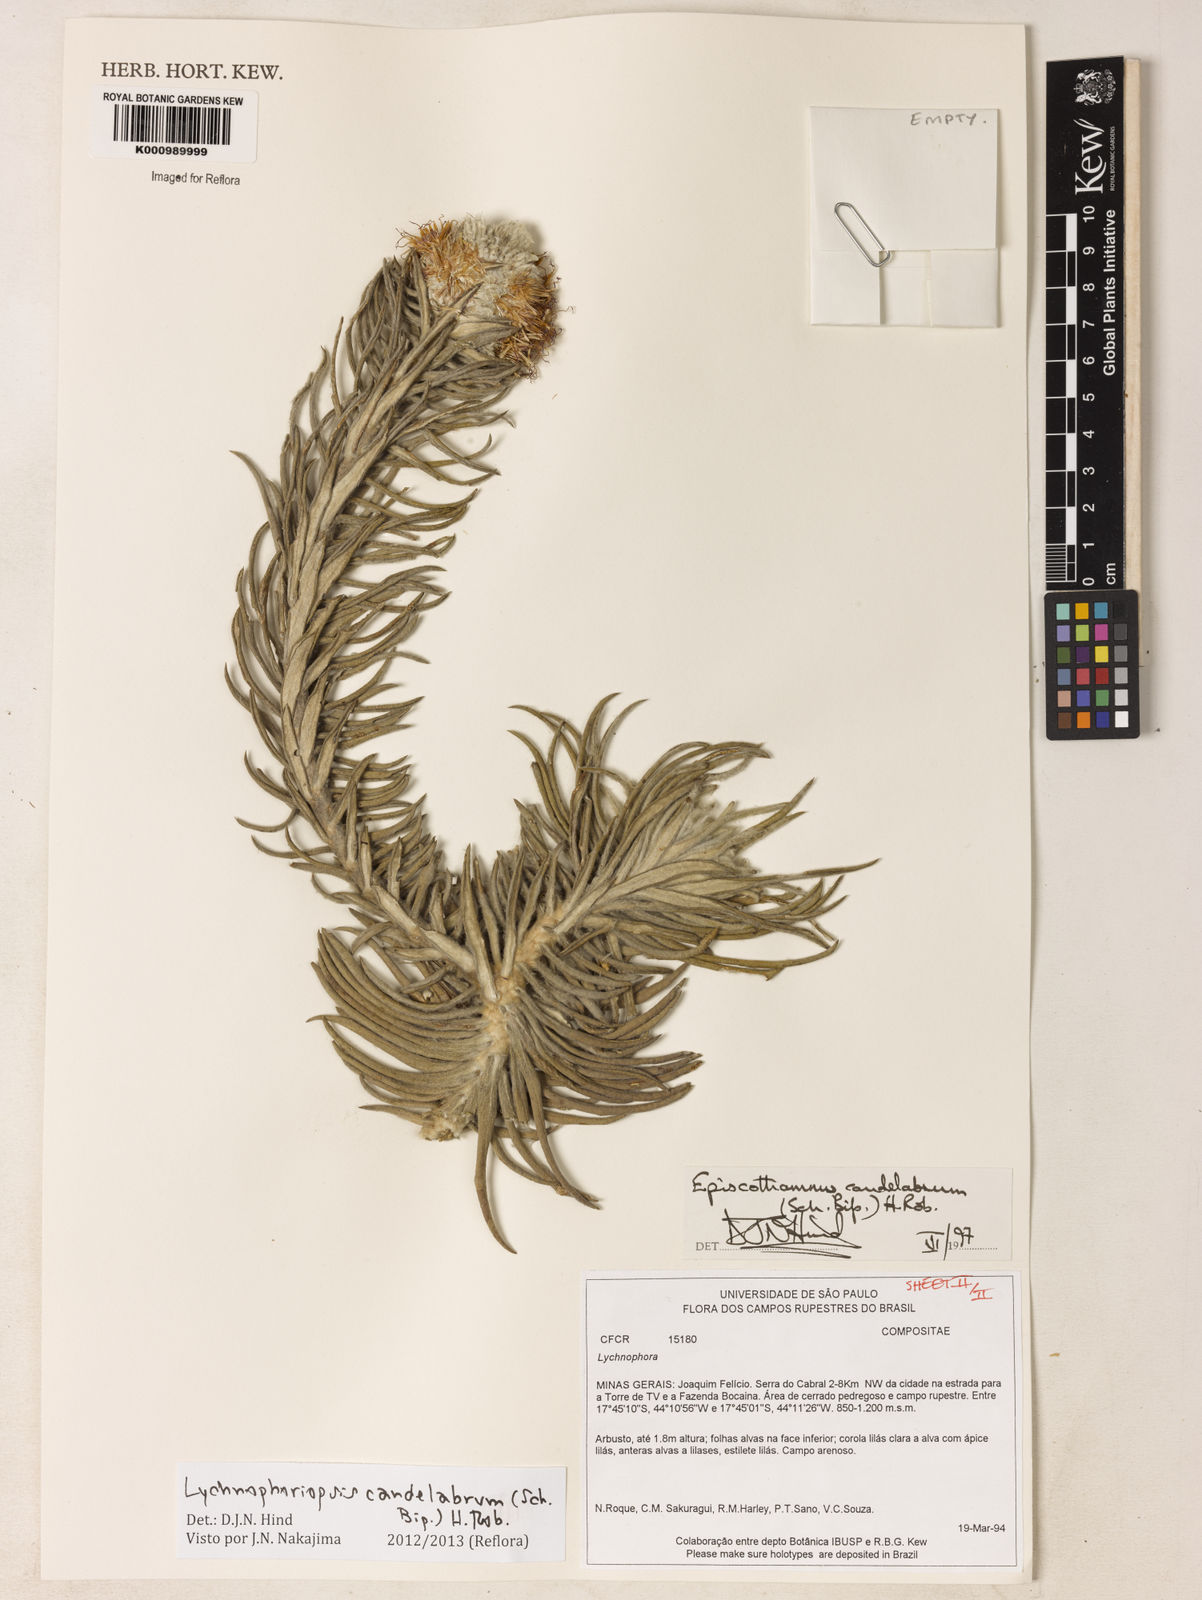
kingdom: Plantae
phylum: Tracheophyta
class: Magnoliopsida
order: Asterales
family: Asteraceae
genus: Lychnophora
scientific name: Lychnophora candelabrum
